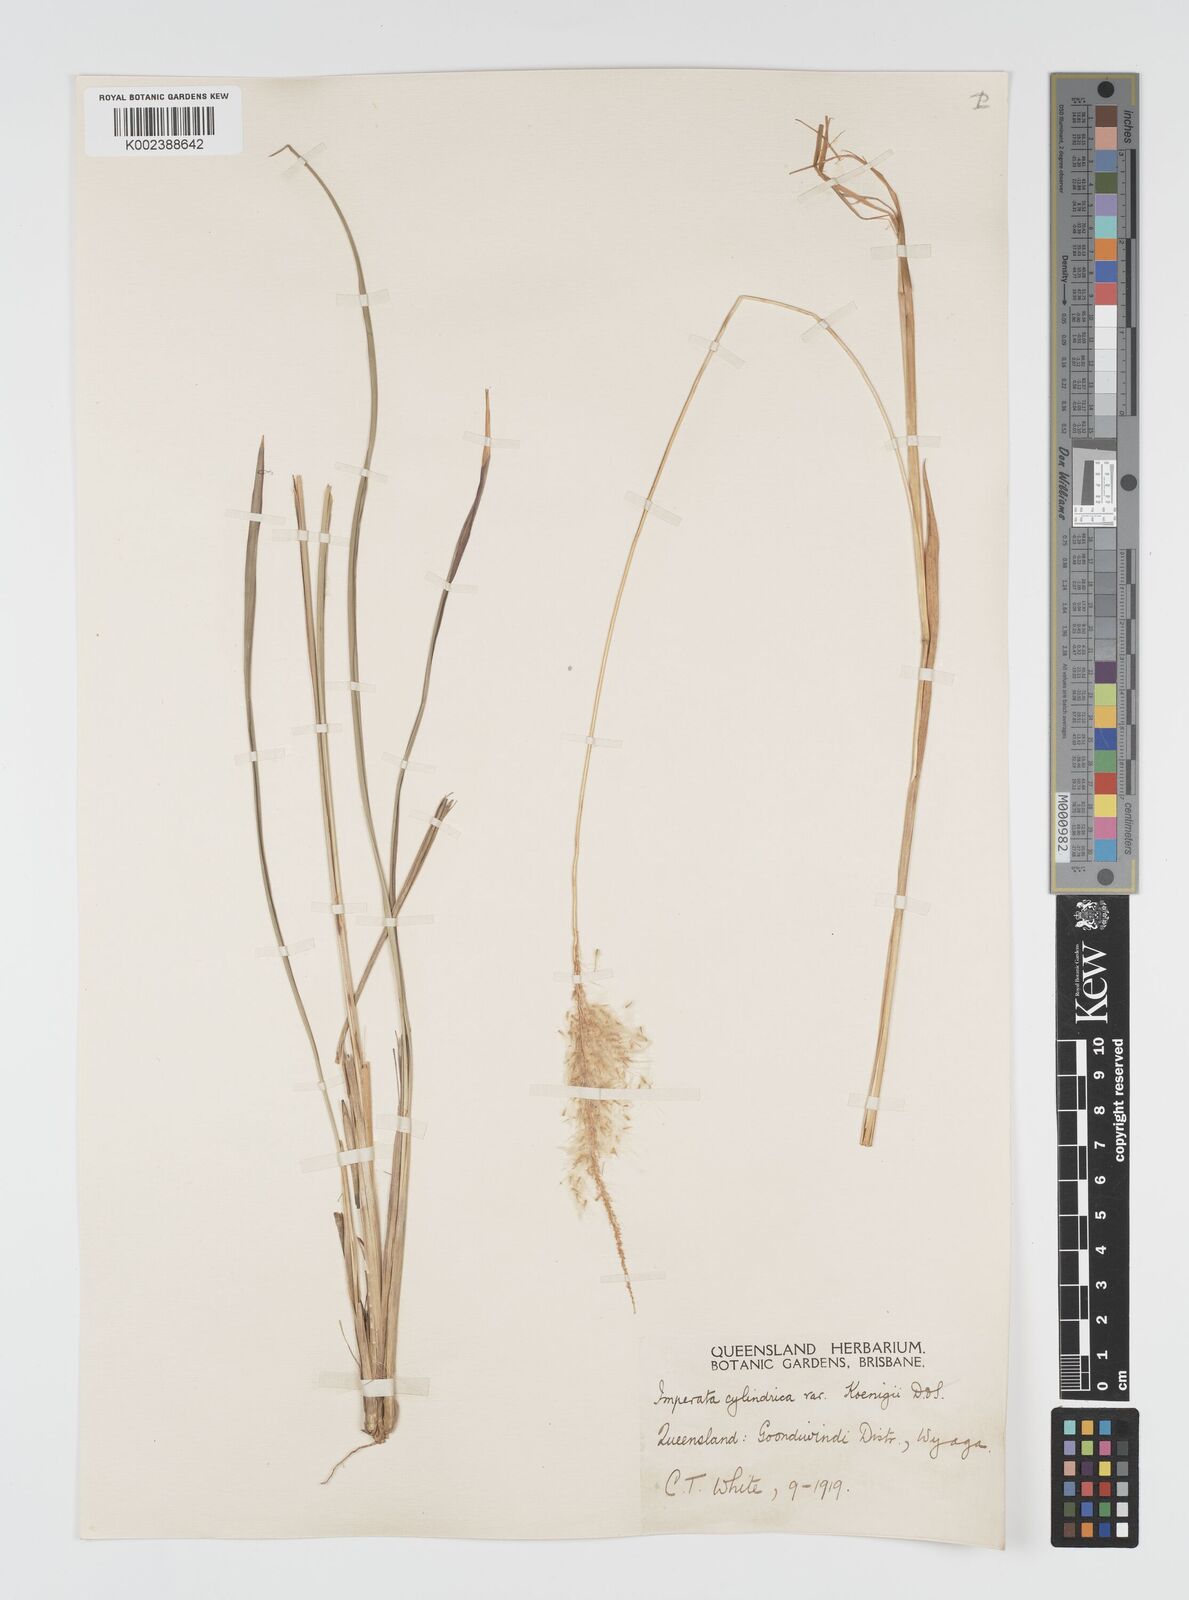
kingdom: Plantae
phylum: Tracheophyta
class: Liliopsida
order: Poales
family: Poaceae
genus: Imperata
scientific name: Imperata cylindrica
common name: Cogongrass
